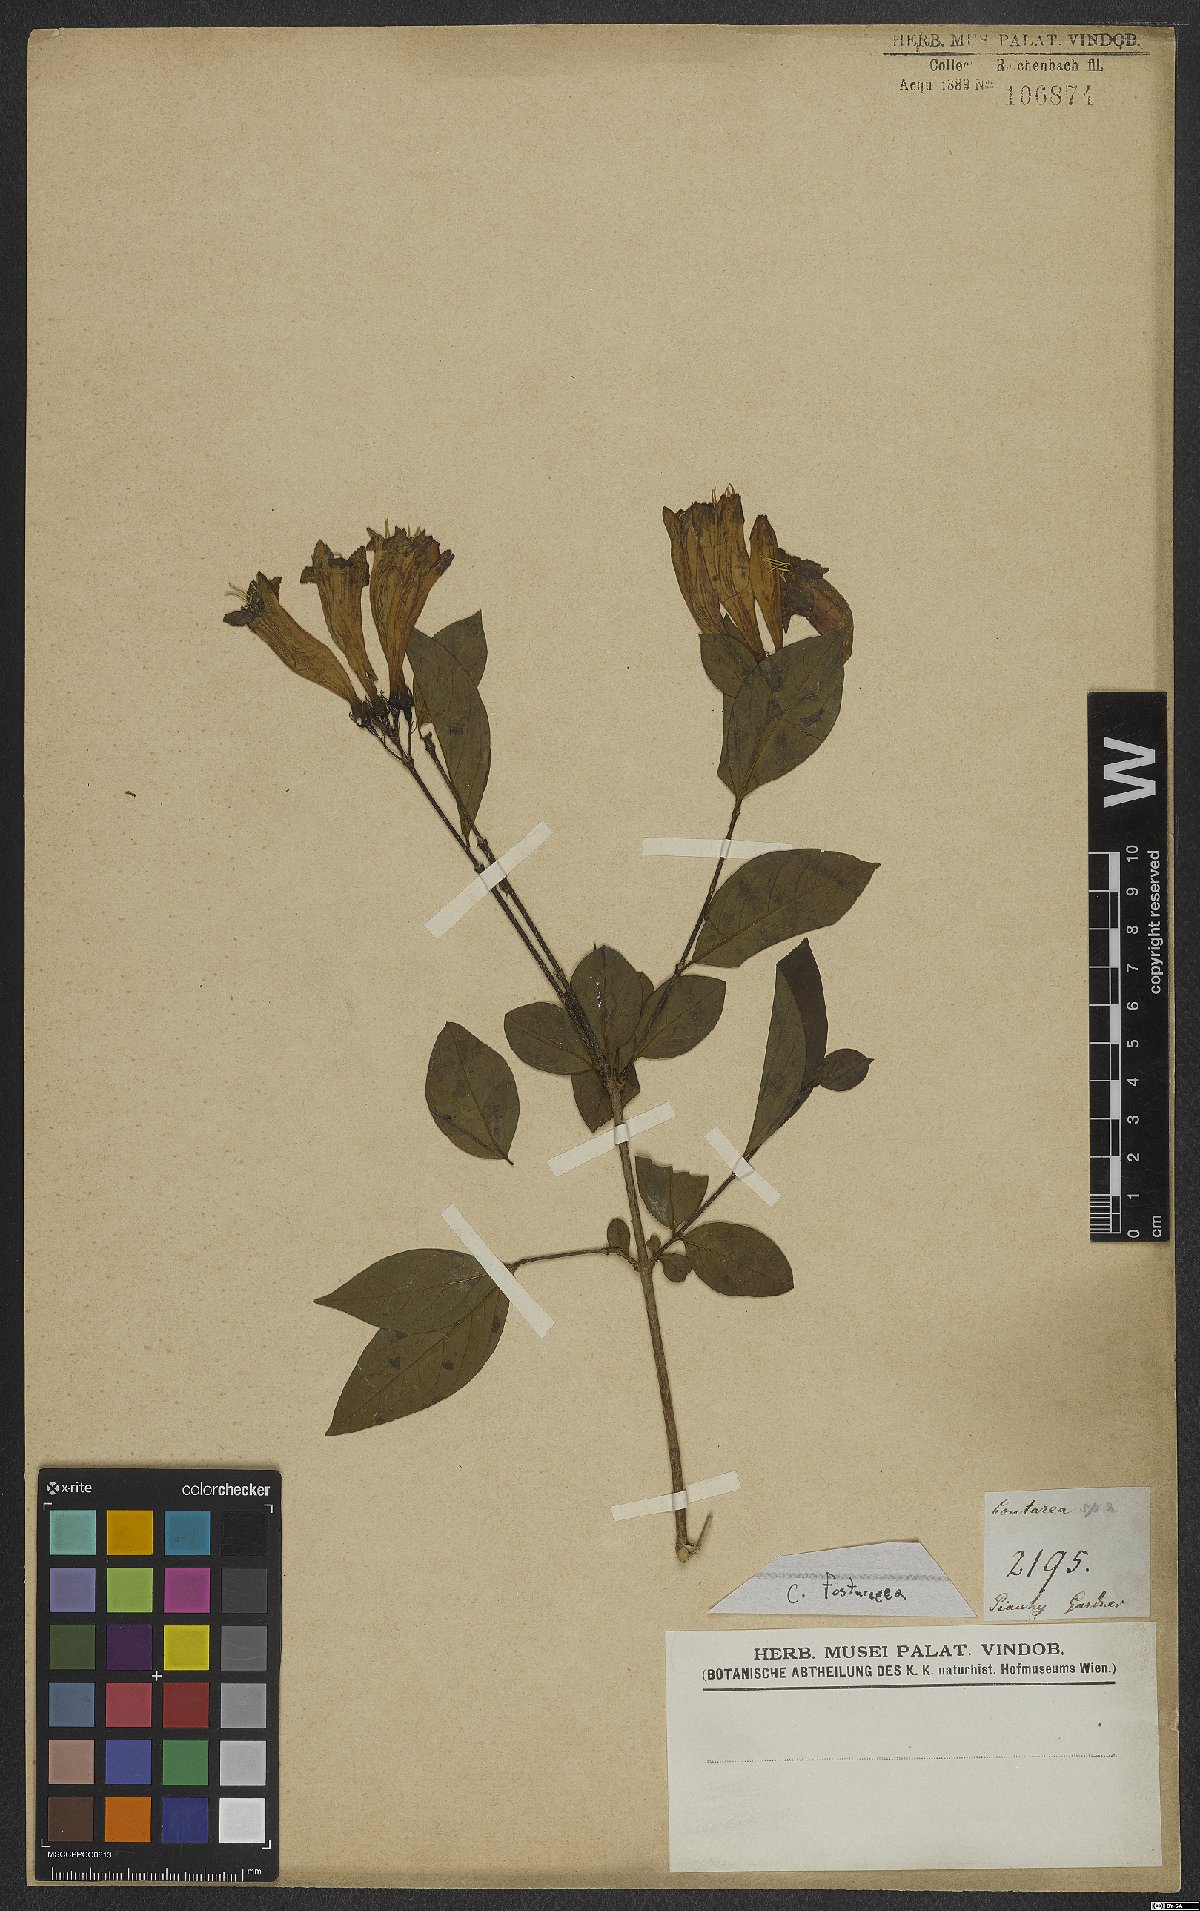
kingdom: Plantae
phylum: Tracheophyta
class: Magnoliopsida
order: Gentianales
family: Rubiaceae
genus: Coutarea
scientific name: Coutarea
